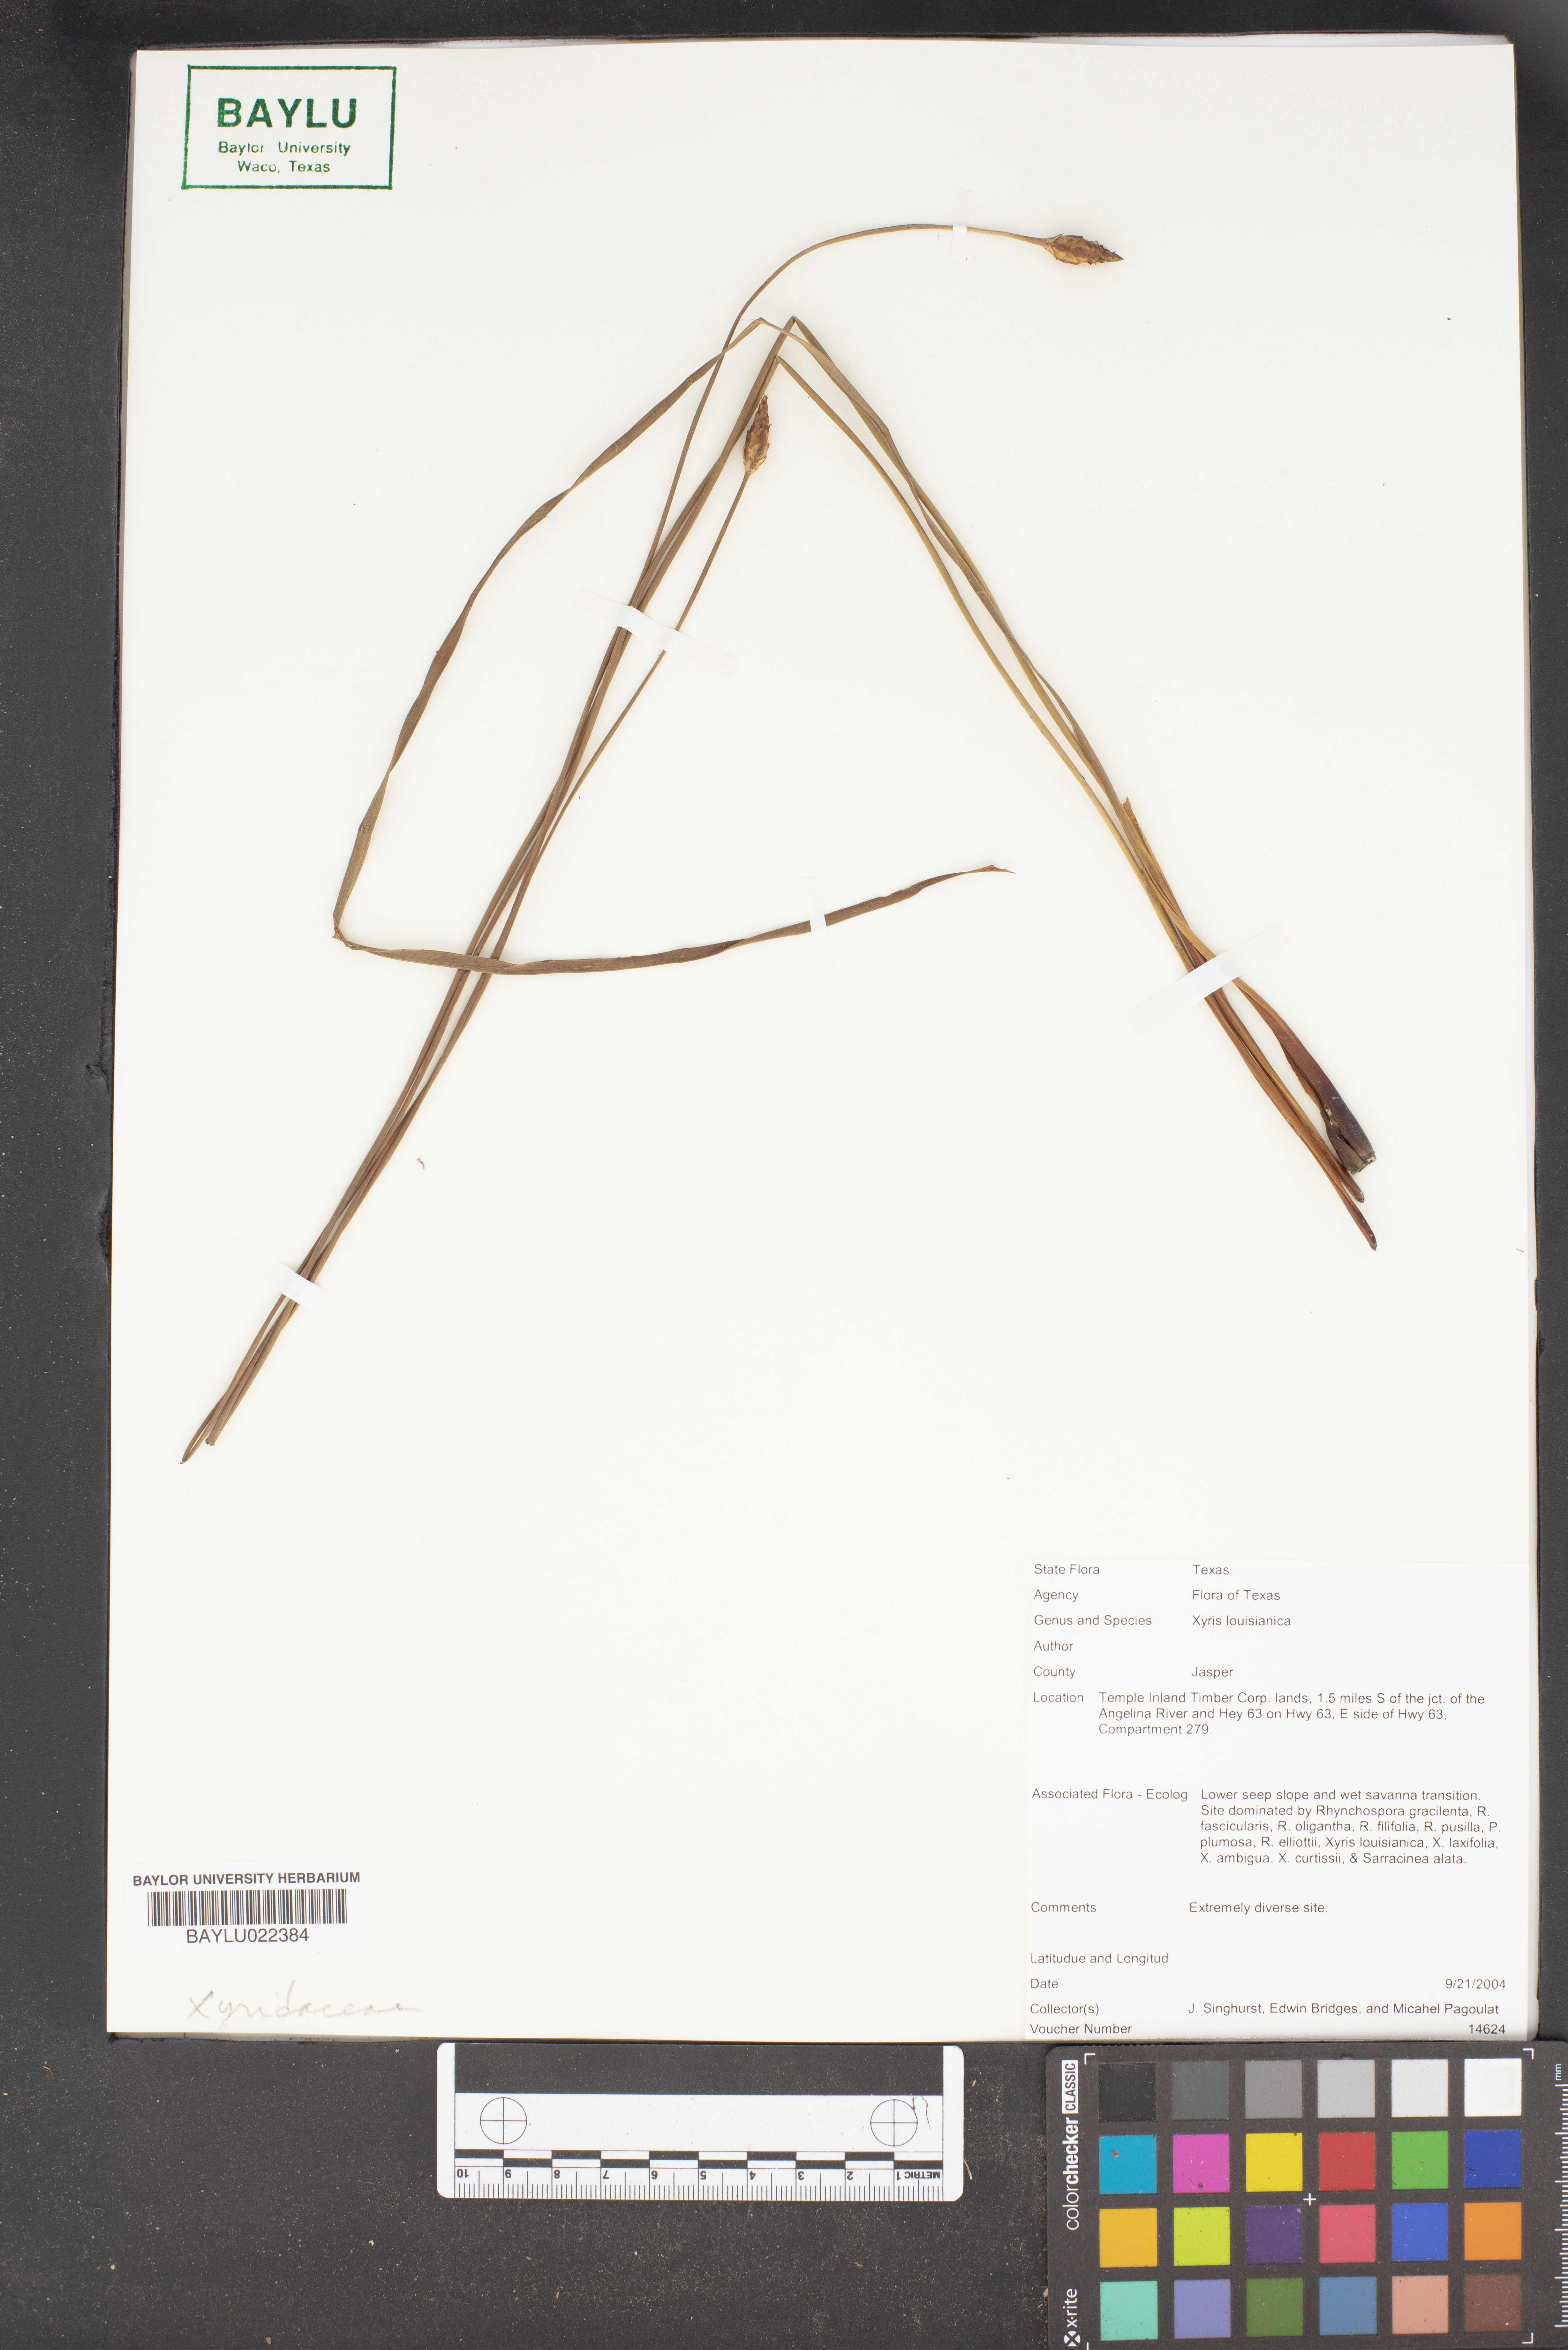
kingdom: Plantae
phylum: Tracheophyta
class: Liliopsida
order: Poales
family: Xyridaceae
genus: Xyris
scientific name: Xyris stricta
